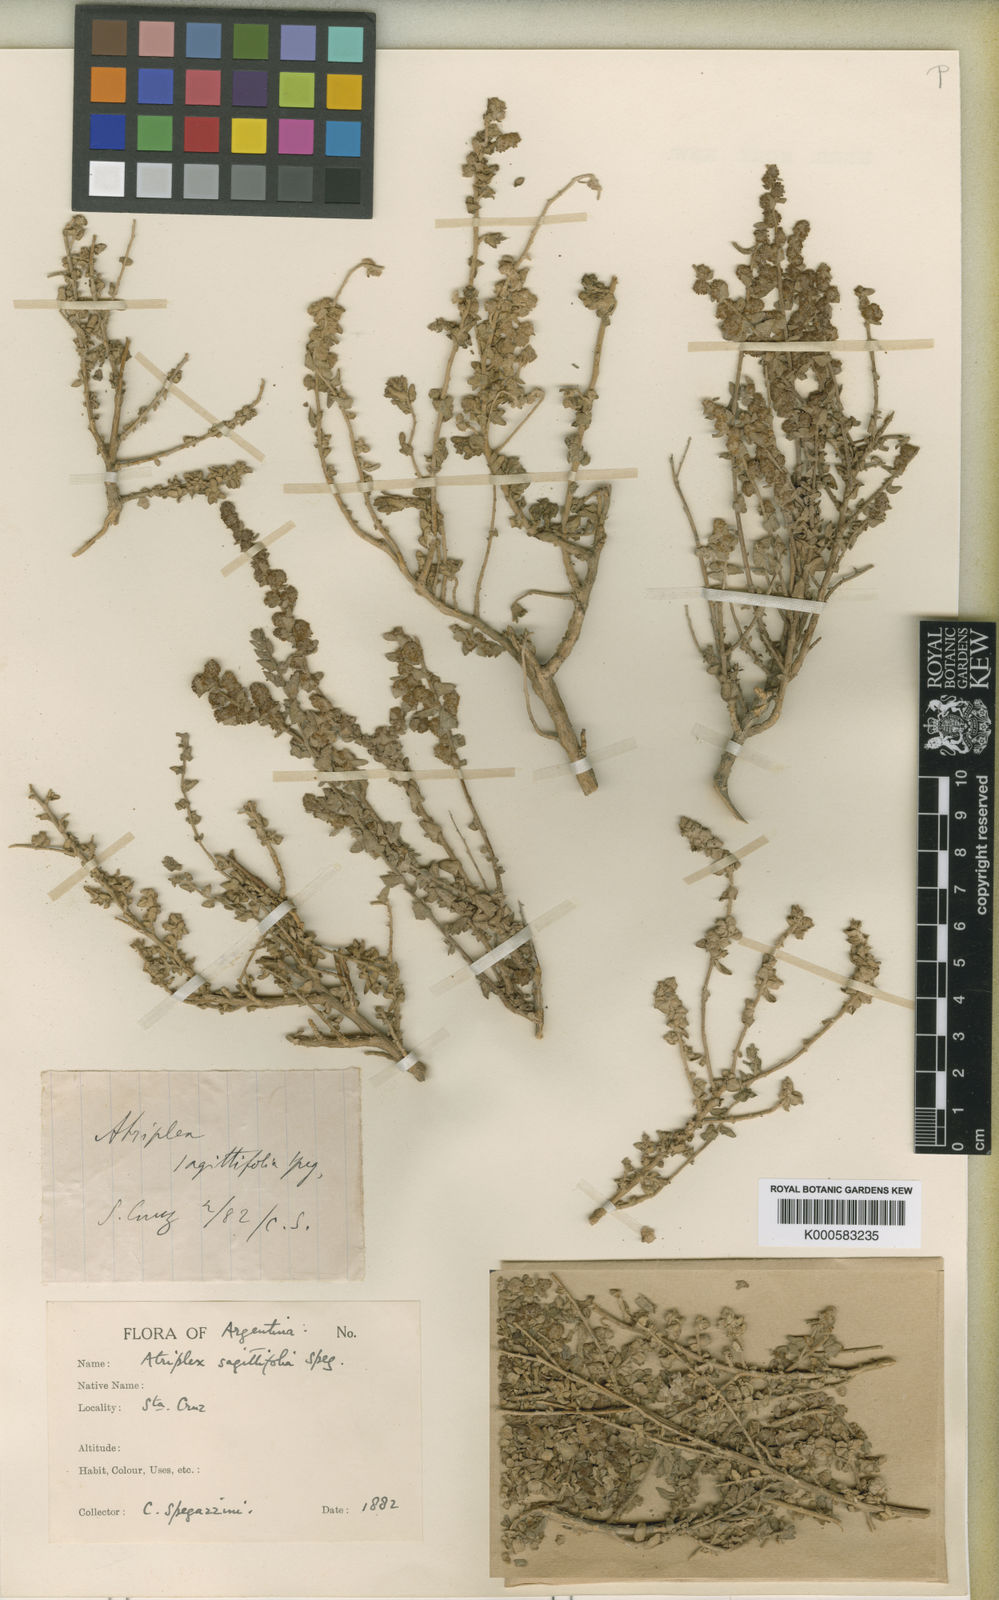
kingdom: Plantae
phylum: Tracheophyta
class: Magnoliopsida
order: Caryophyllales
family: Amaranthaceae
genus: Atriplex
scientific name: Atriplex sagittifolia
